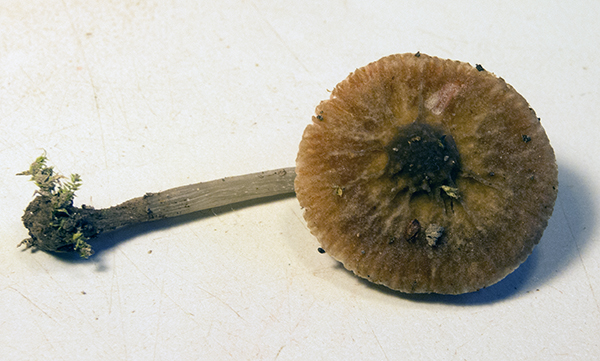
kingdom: Fungi
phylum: Basidiomycota
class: Agaricomycetes
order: Agaricales
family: Pluteaceae
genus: Pluteus
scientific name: Pluteus
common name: gråstokket skærmhat
